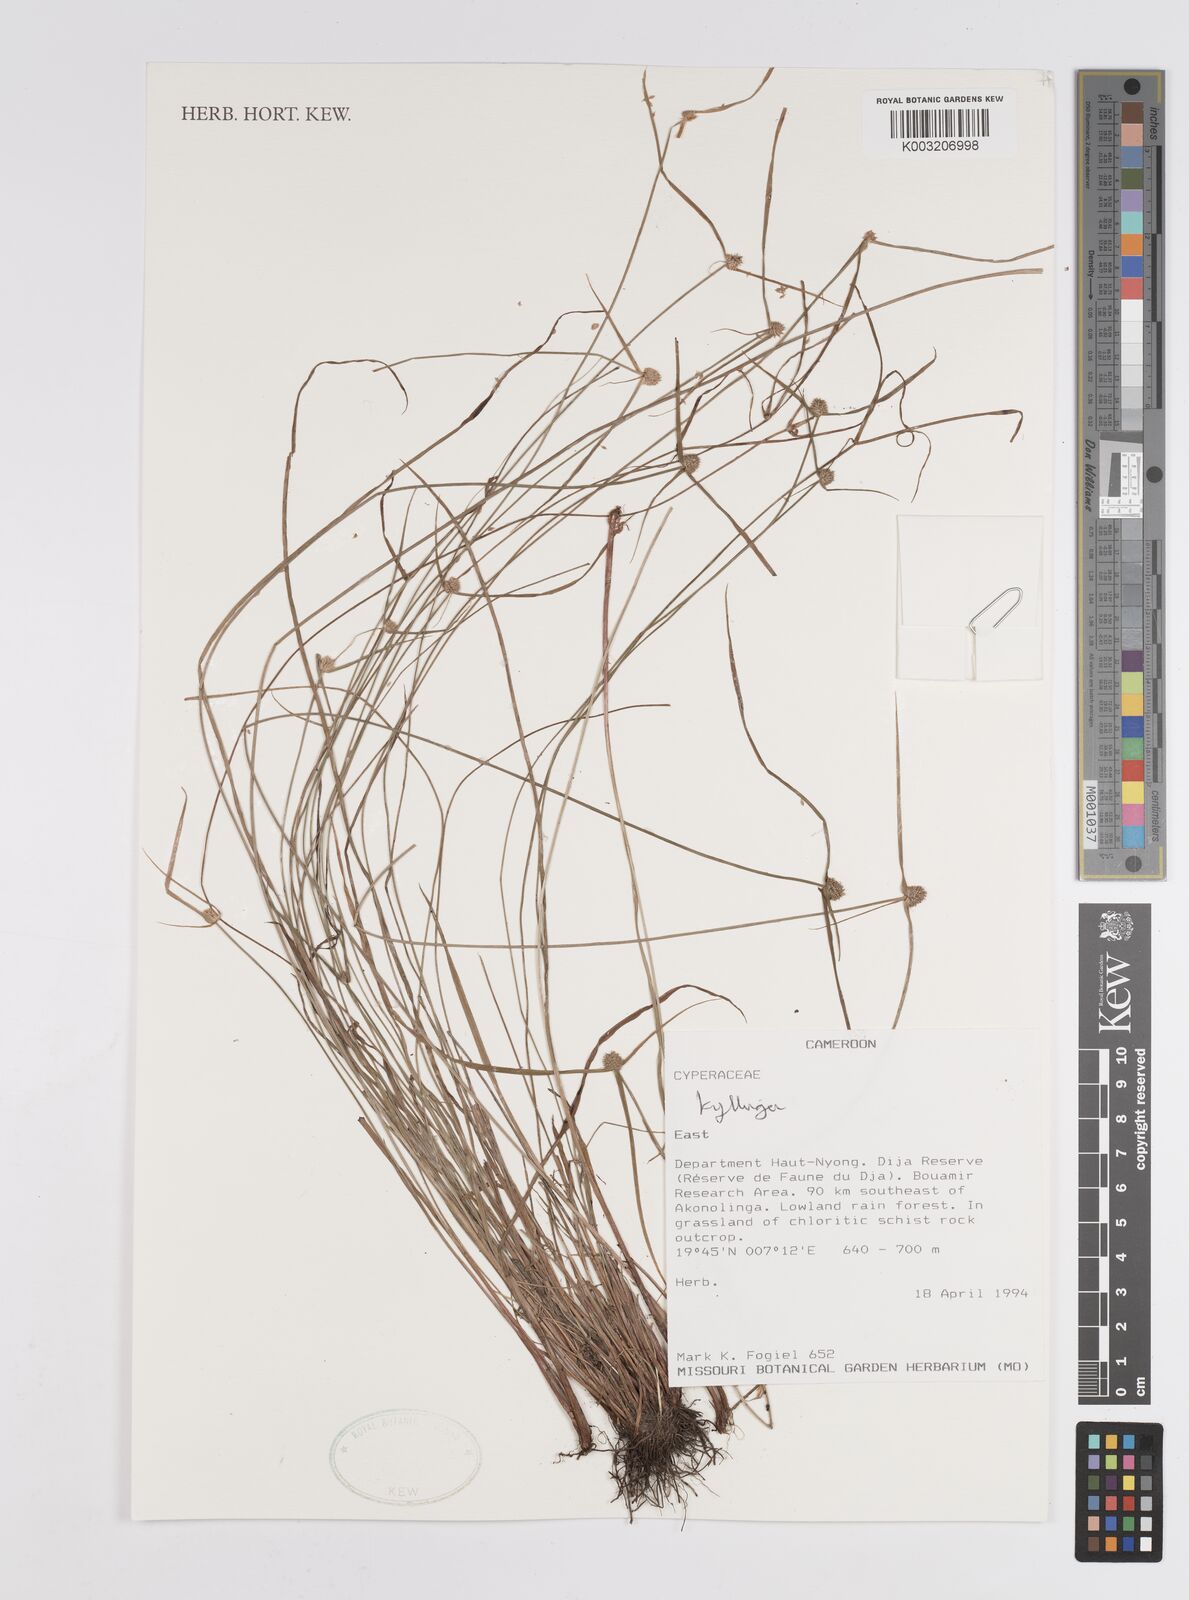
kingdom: Plantae
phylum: Tracheophyta
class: Liliopsida
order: Poales
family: Cyperaceae
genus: Cyperus
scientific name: Cyperus
